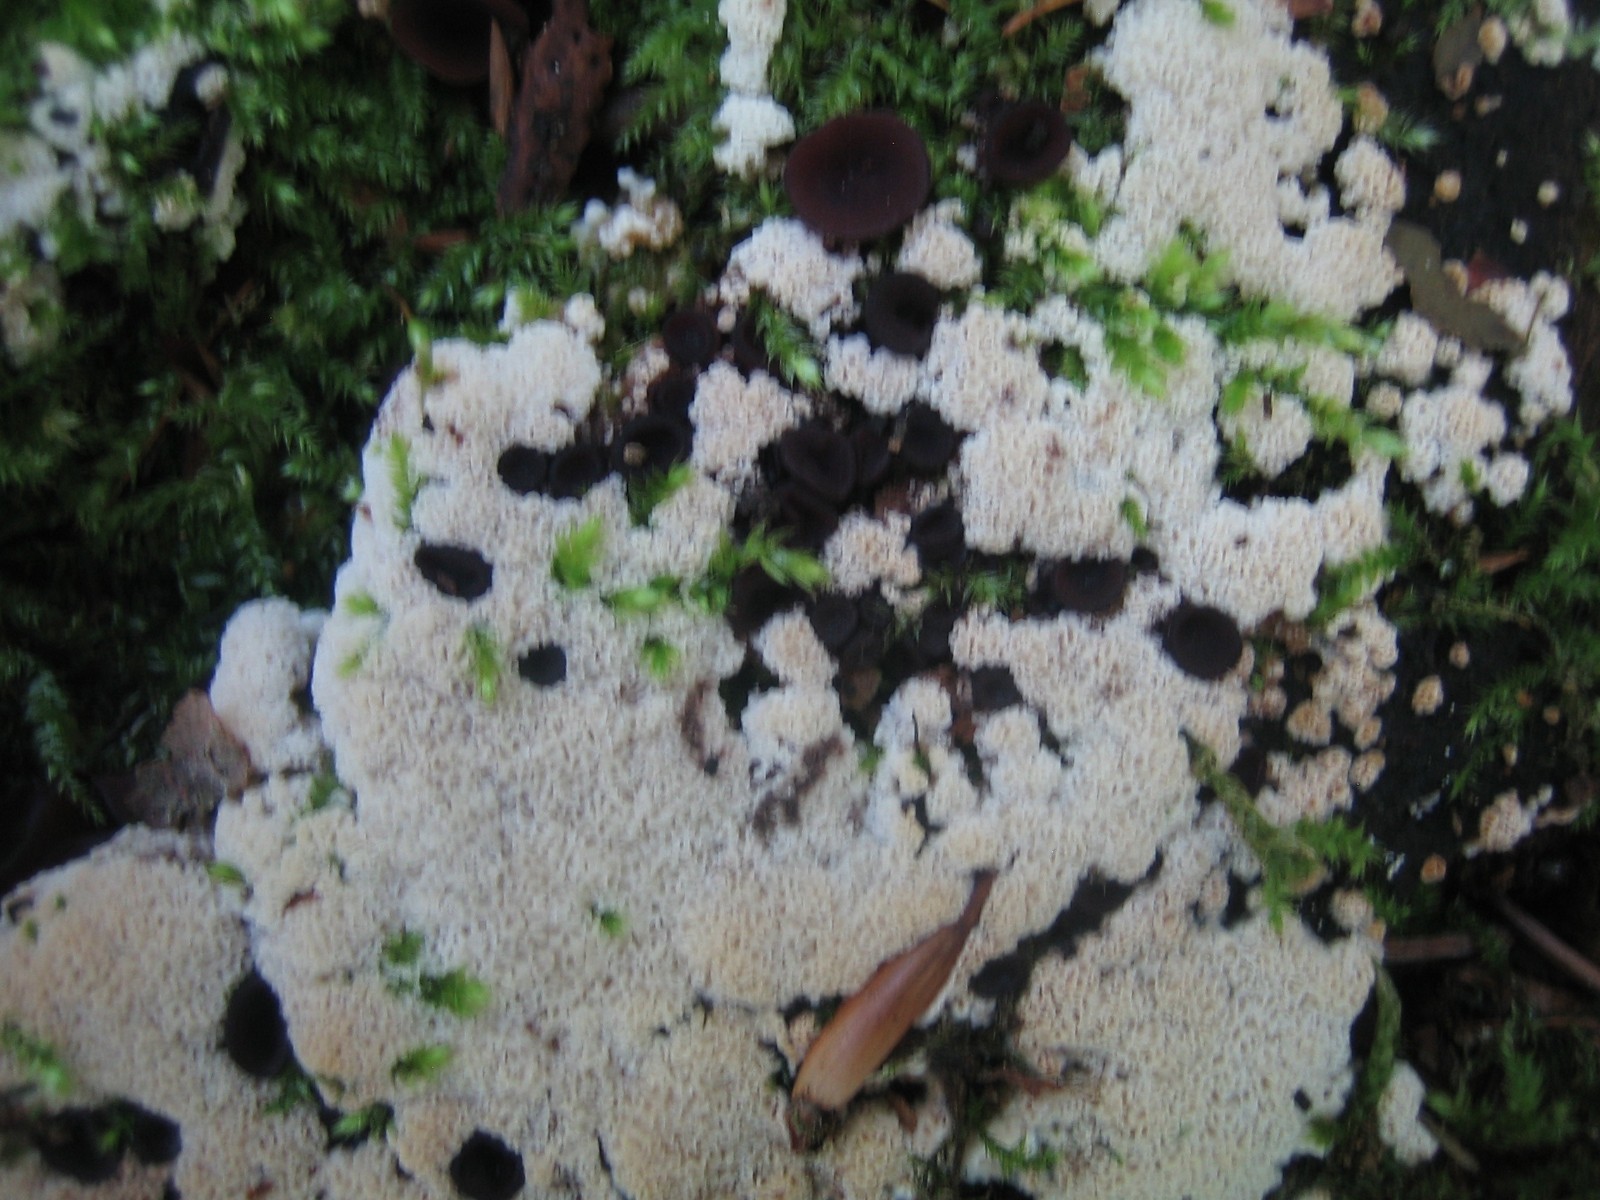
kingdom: Fungi
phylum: Basidiomycota
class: Agaricomycetes
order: Polyporales
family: Meruliaceae
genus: Physisporinus
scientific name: Physisporinus
